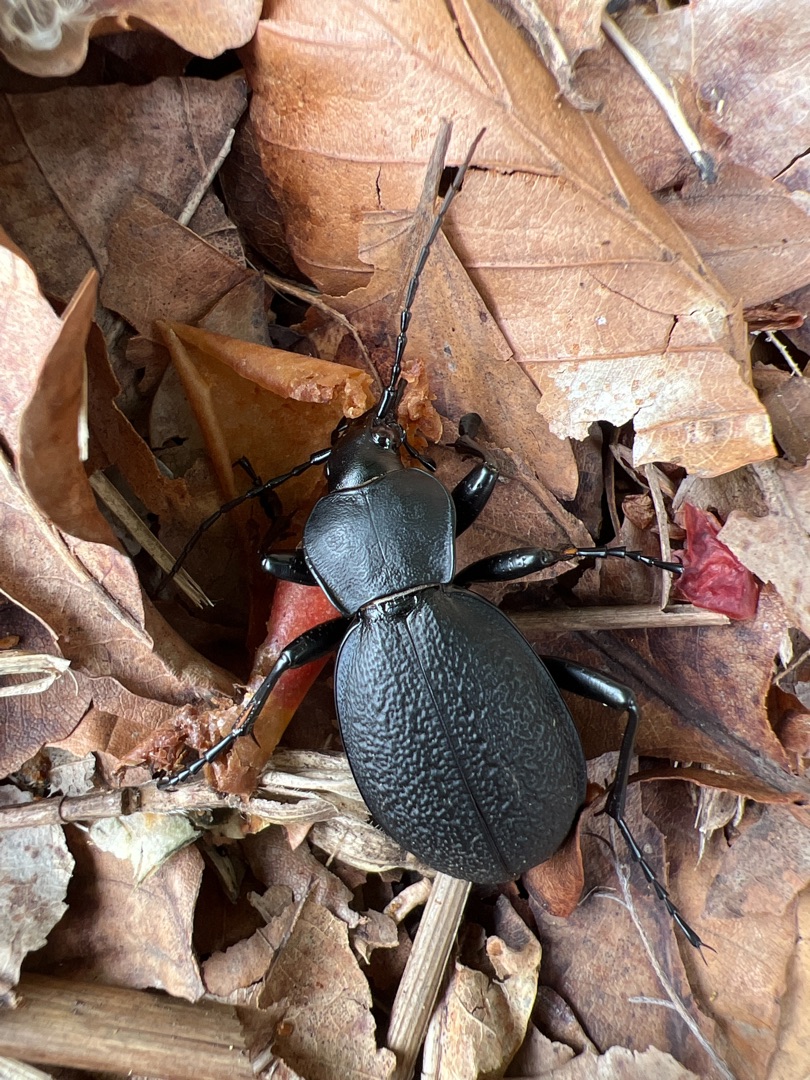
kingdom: Animalia
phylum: Arthropoda
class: Insecta
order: Coleoptera
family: Carabidae
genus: Carabus
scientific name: Carabus coriaceus
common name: Læderløber
